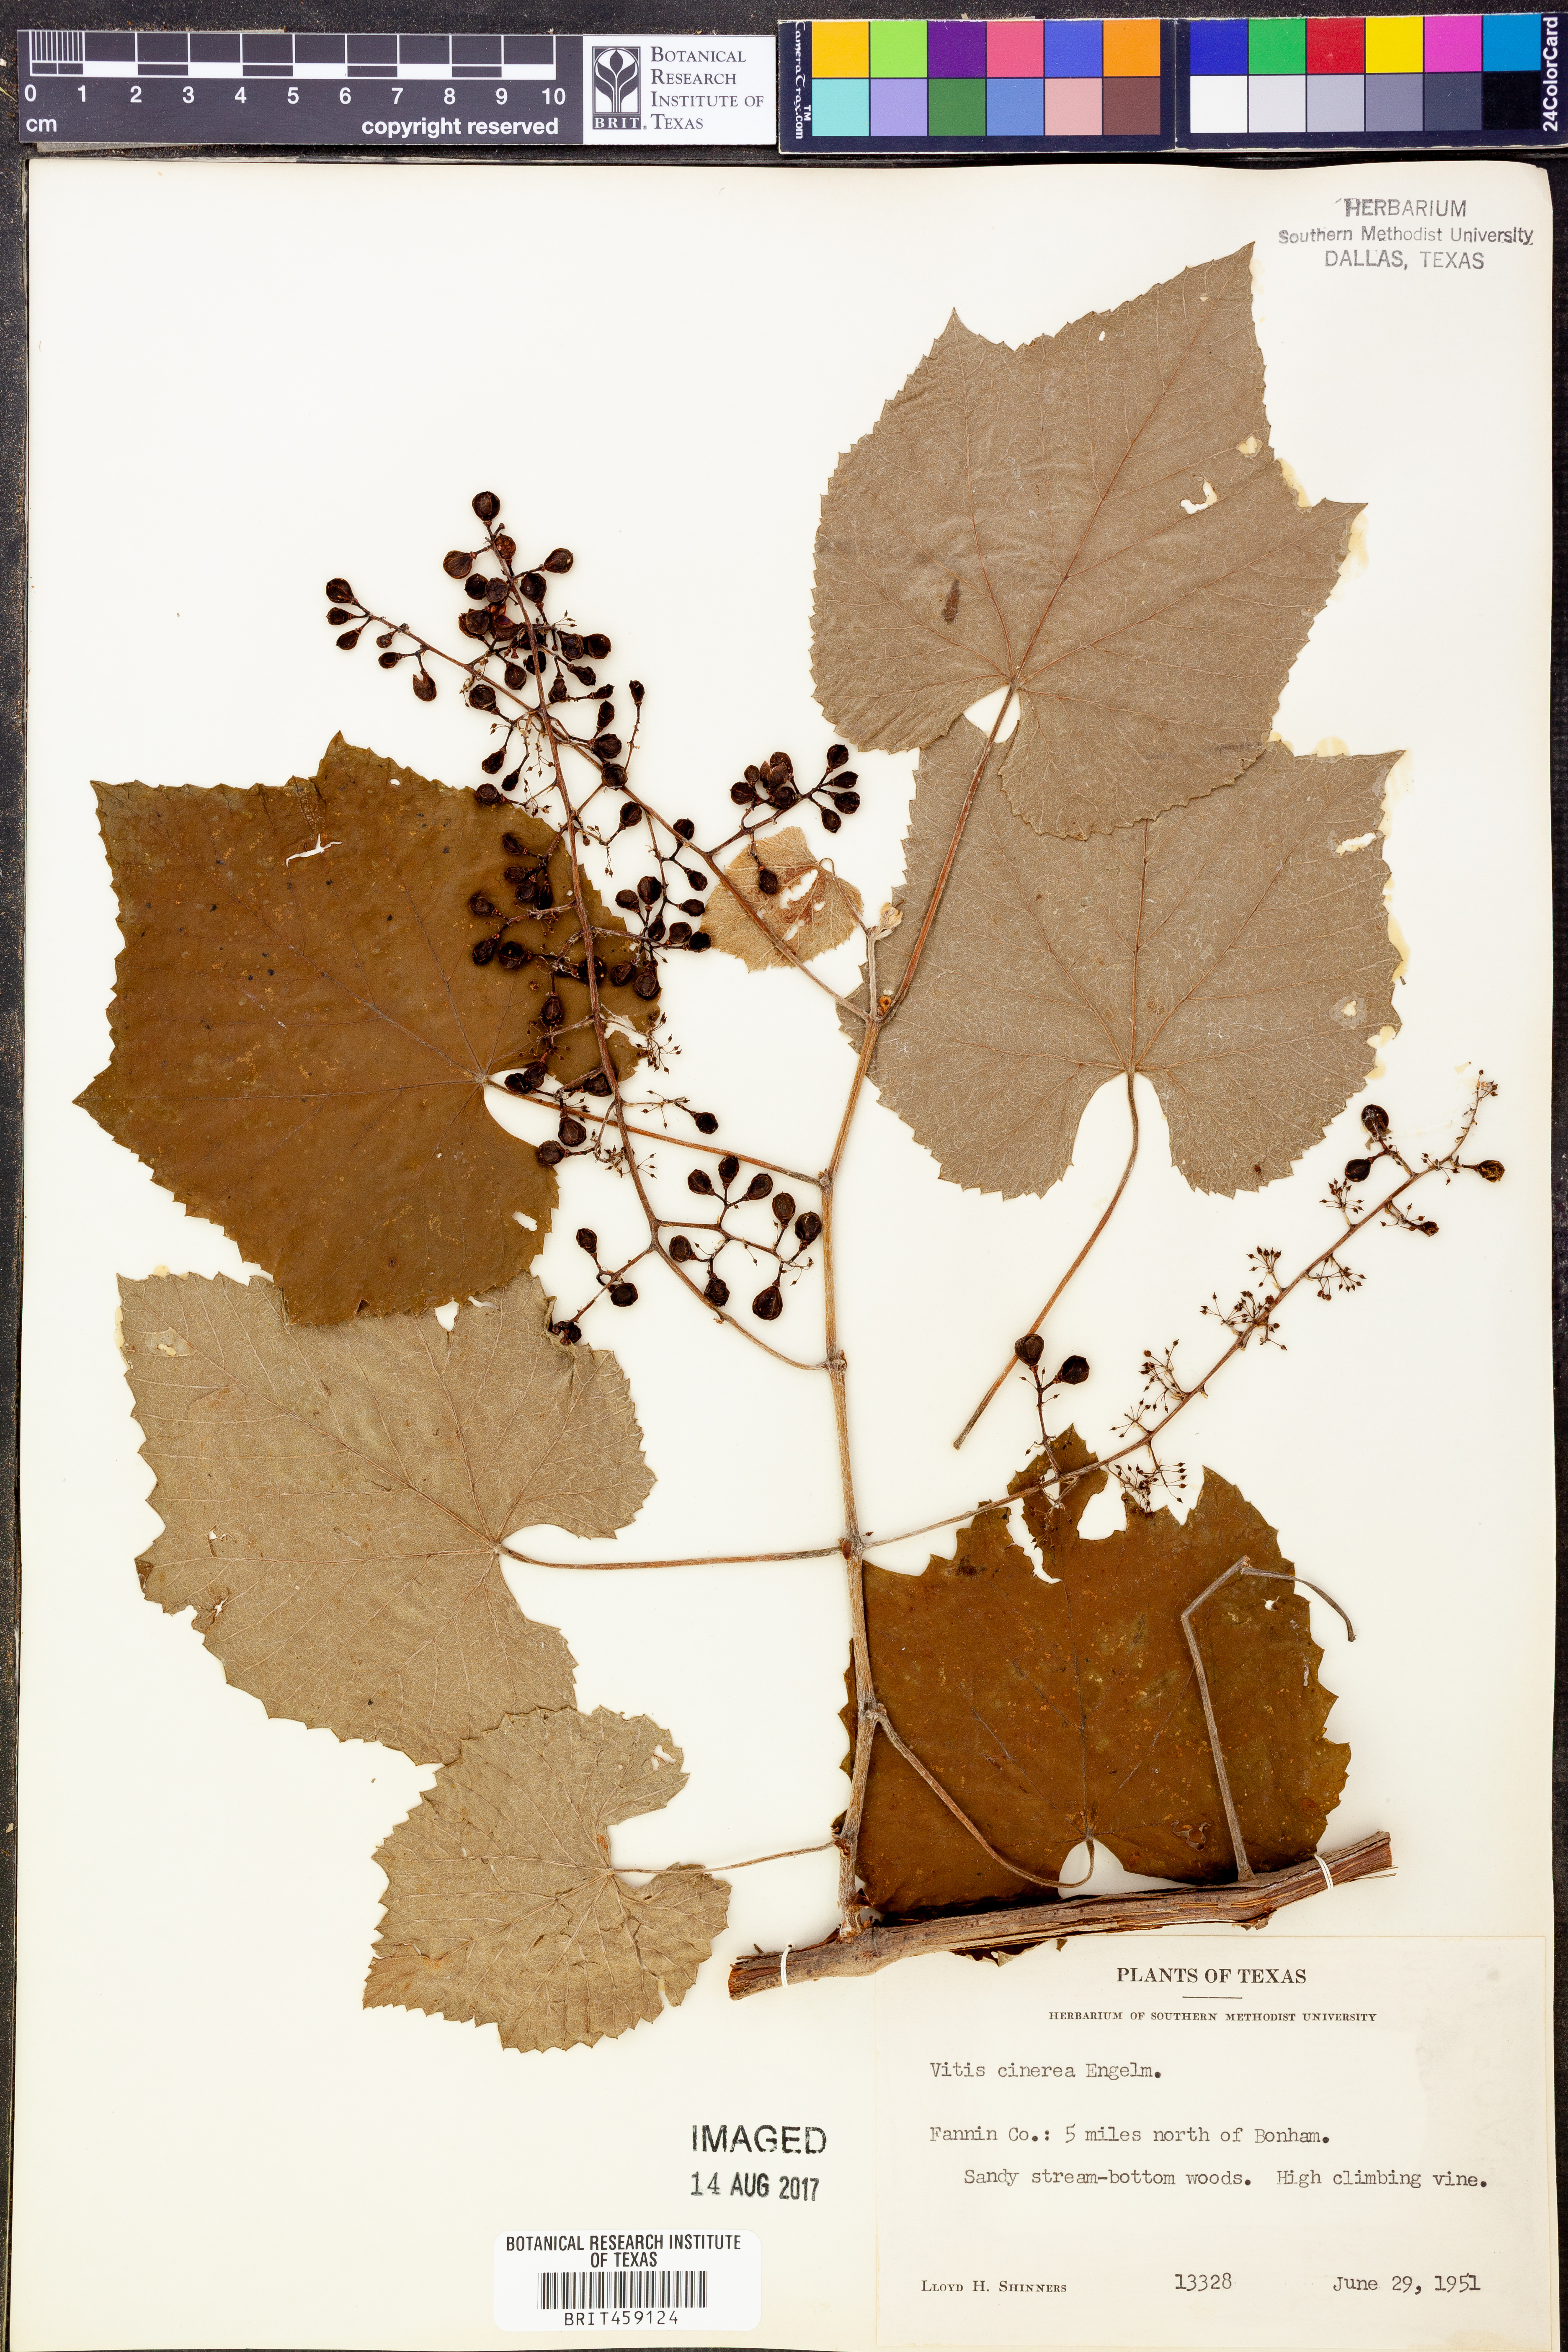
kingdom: Plantae
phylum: Tracheophyta
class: Magnoliopsida
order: Vitales
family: Vitaceae
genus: Vitis
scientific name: Vitis cinerea
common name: Ashy grape
